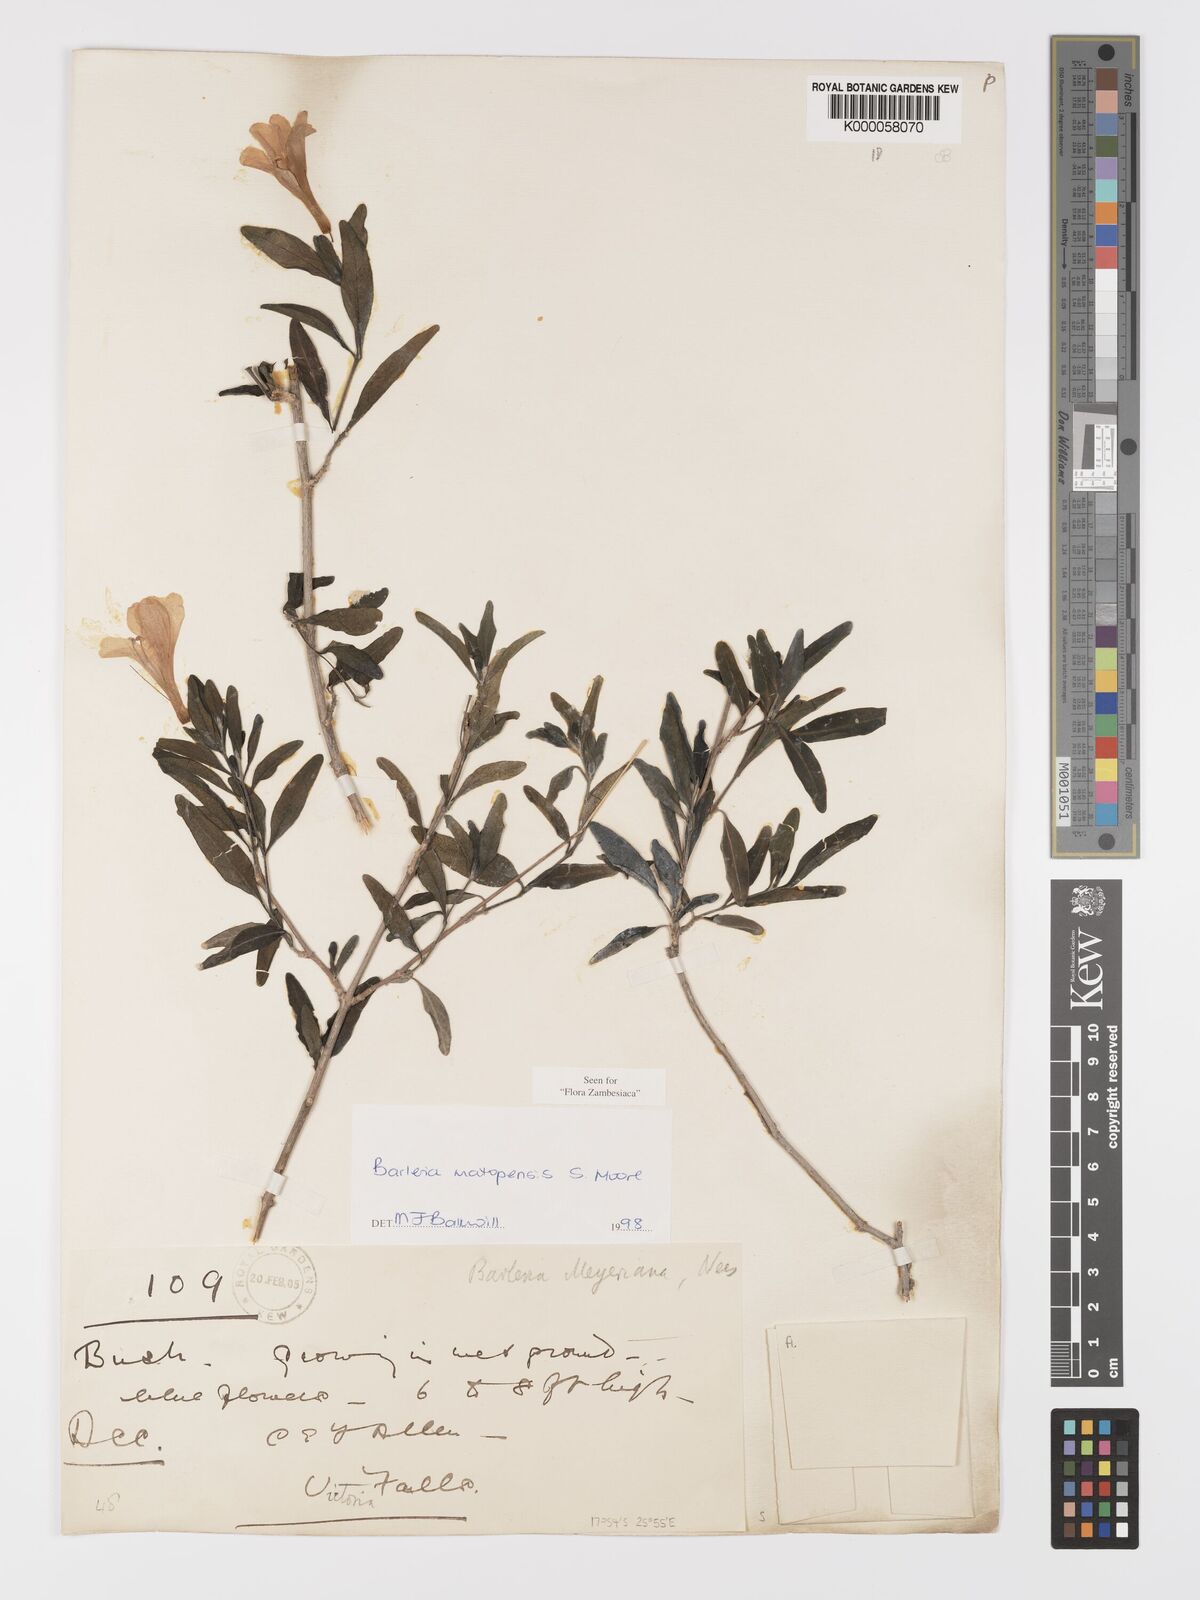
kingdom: Plantae
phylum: Tracheophyta
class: Magnoliopsida
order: Lamiales
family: Acanthaceae
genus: Barleria
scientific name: Barleria matopensis
